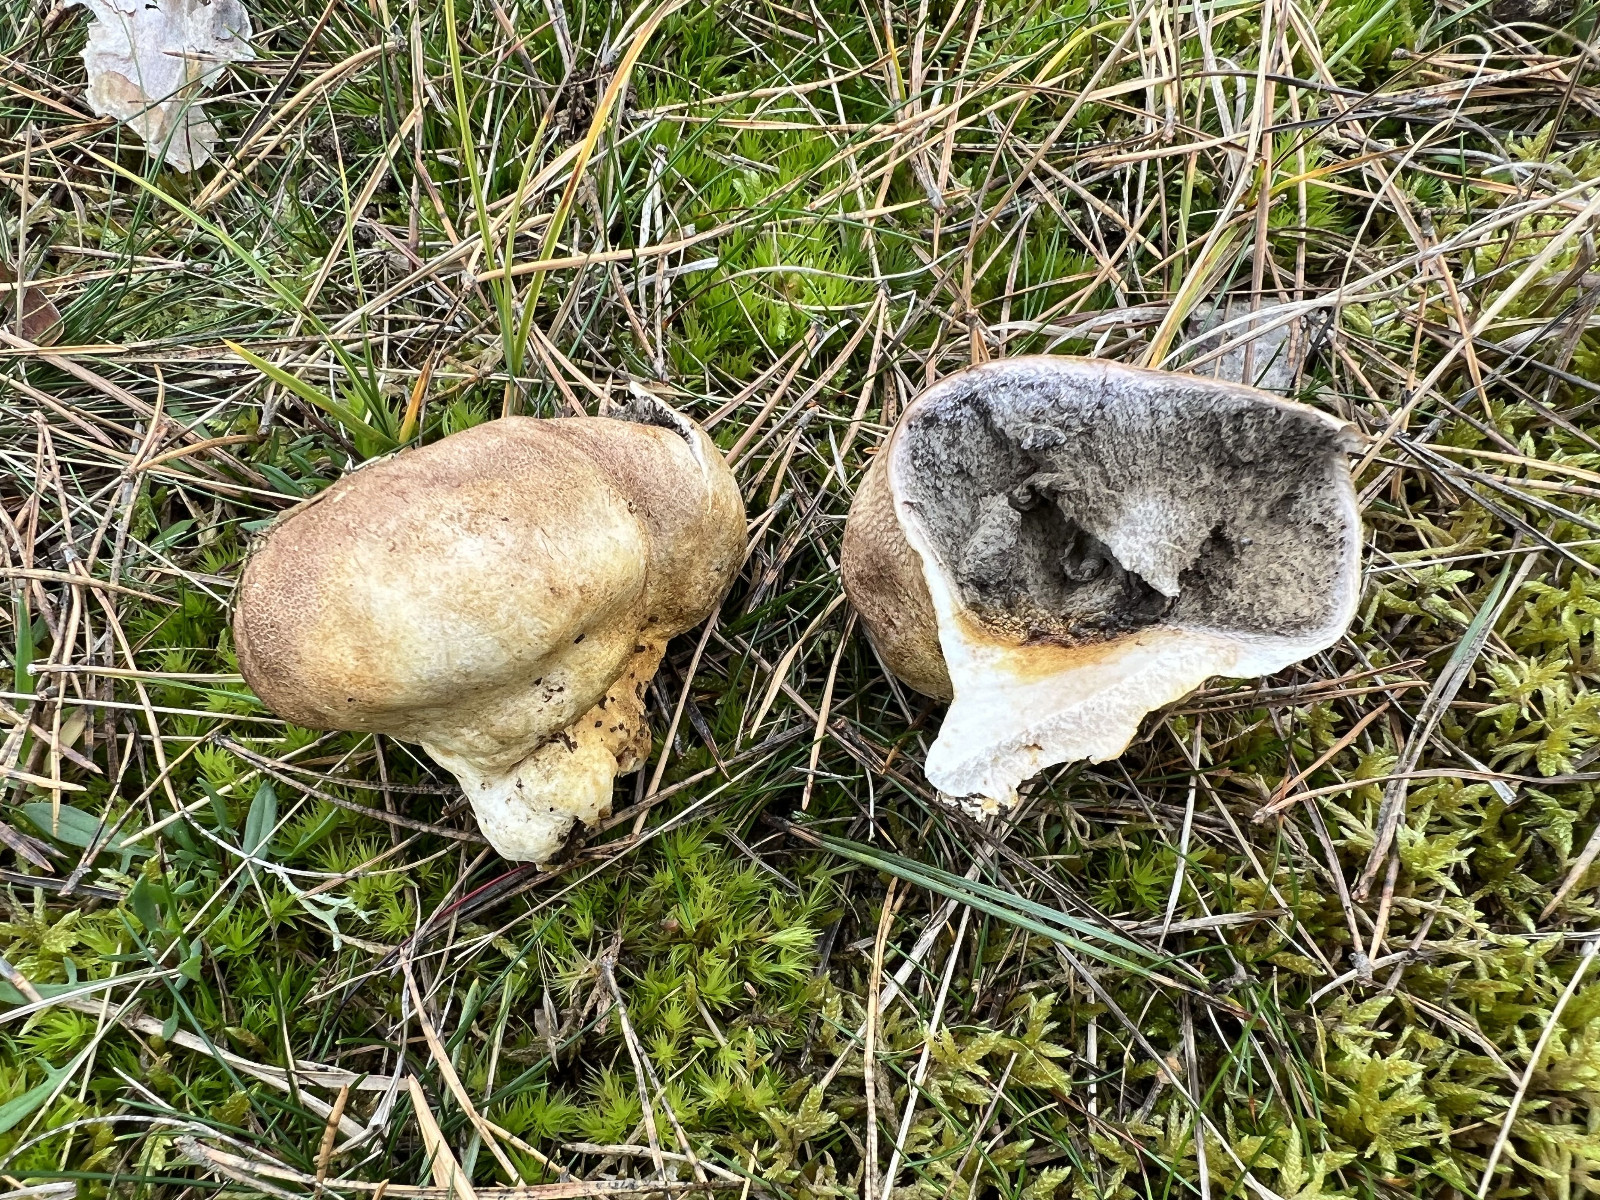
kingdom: Fungi
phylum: Basidiomycota
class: Agaricomycetes
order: Boletales
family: Sclerodermataceae
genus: Scleroderma
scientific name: Scleroderma
